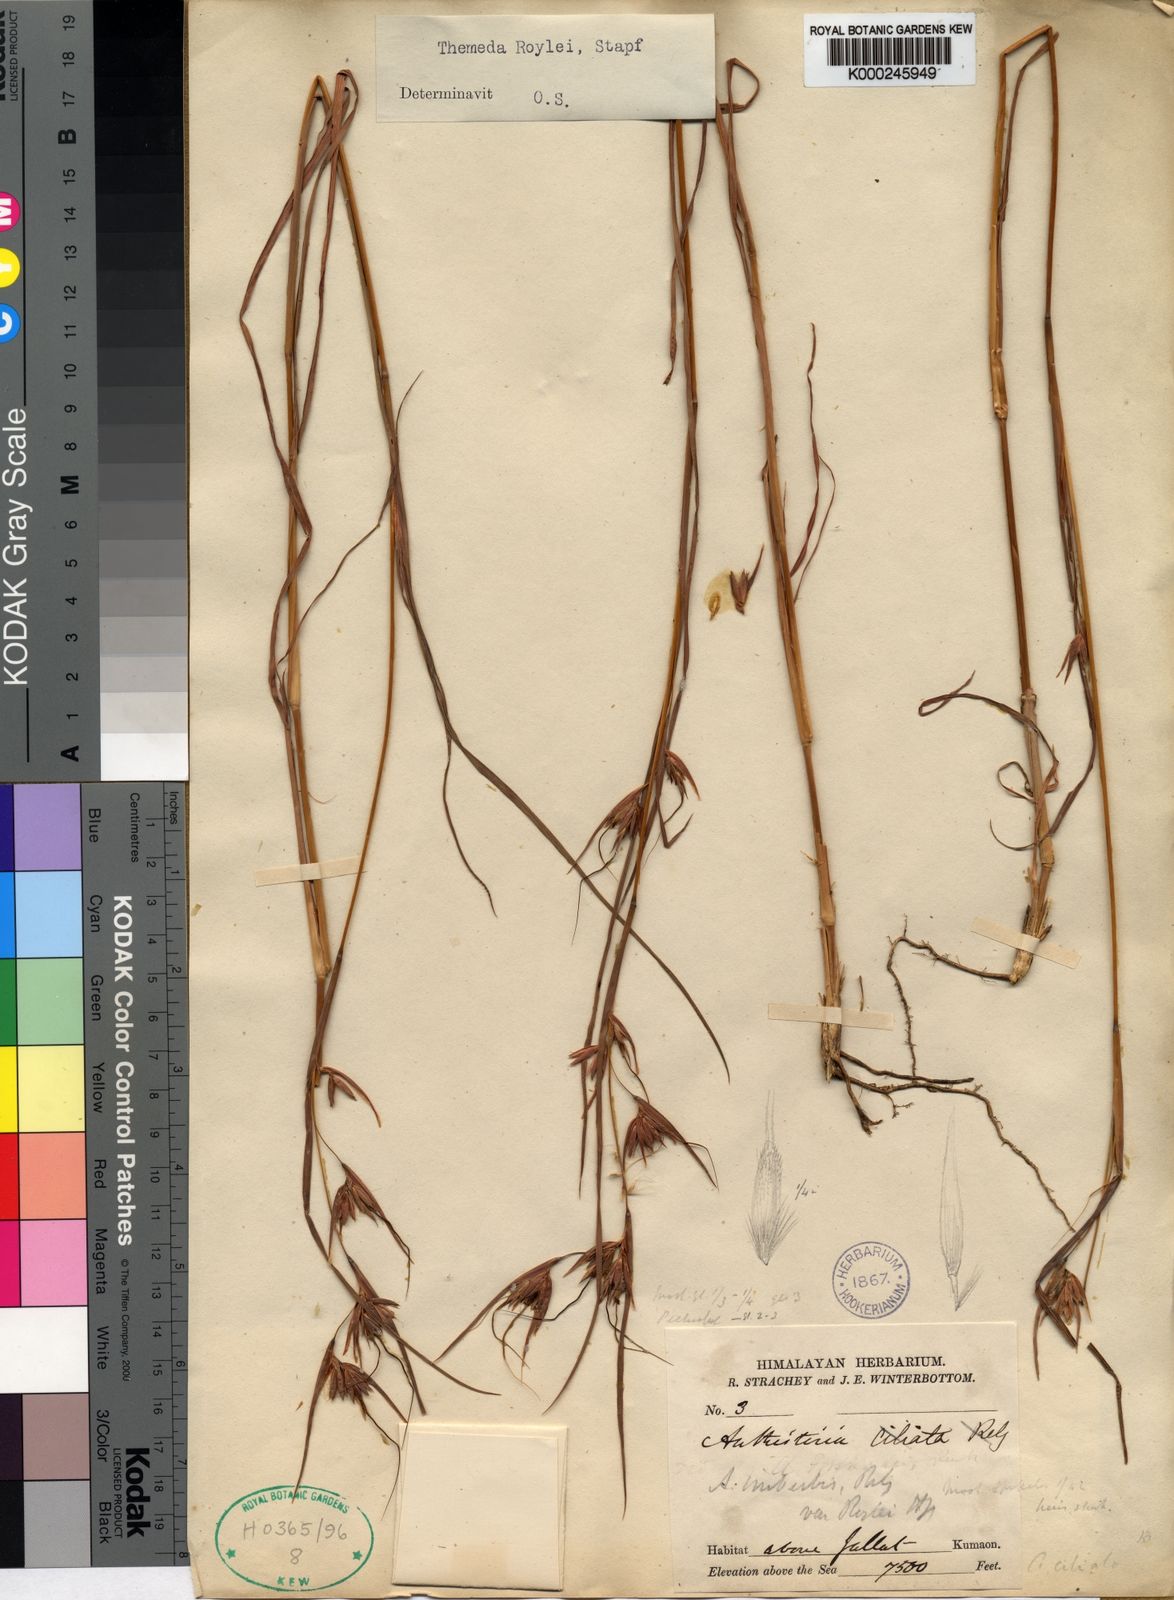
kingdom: Plantae
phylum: Tracheophyta
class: Liliopsida
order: Poales
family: Poaceae
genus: Themeda
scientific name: Themeda triandra
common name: Kangaroo grass
